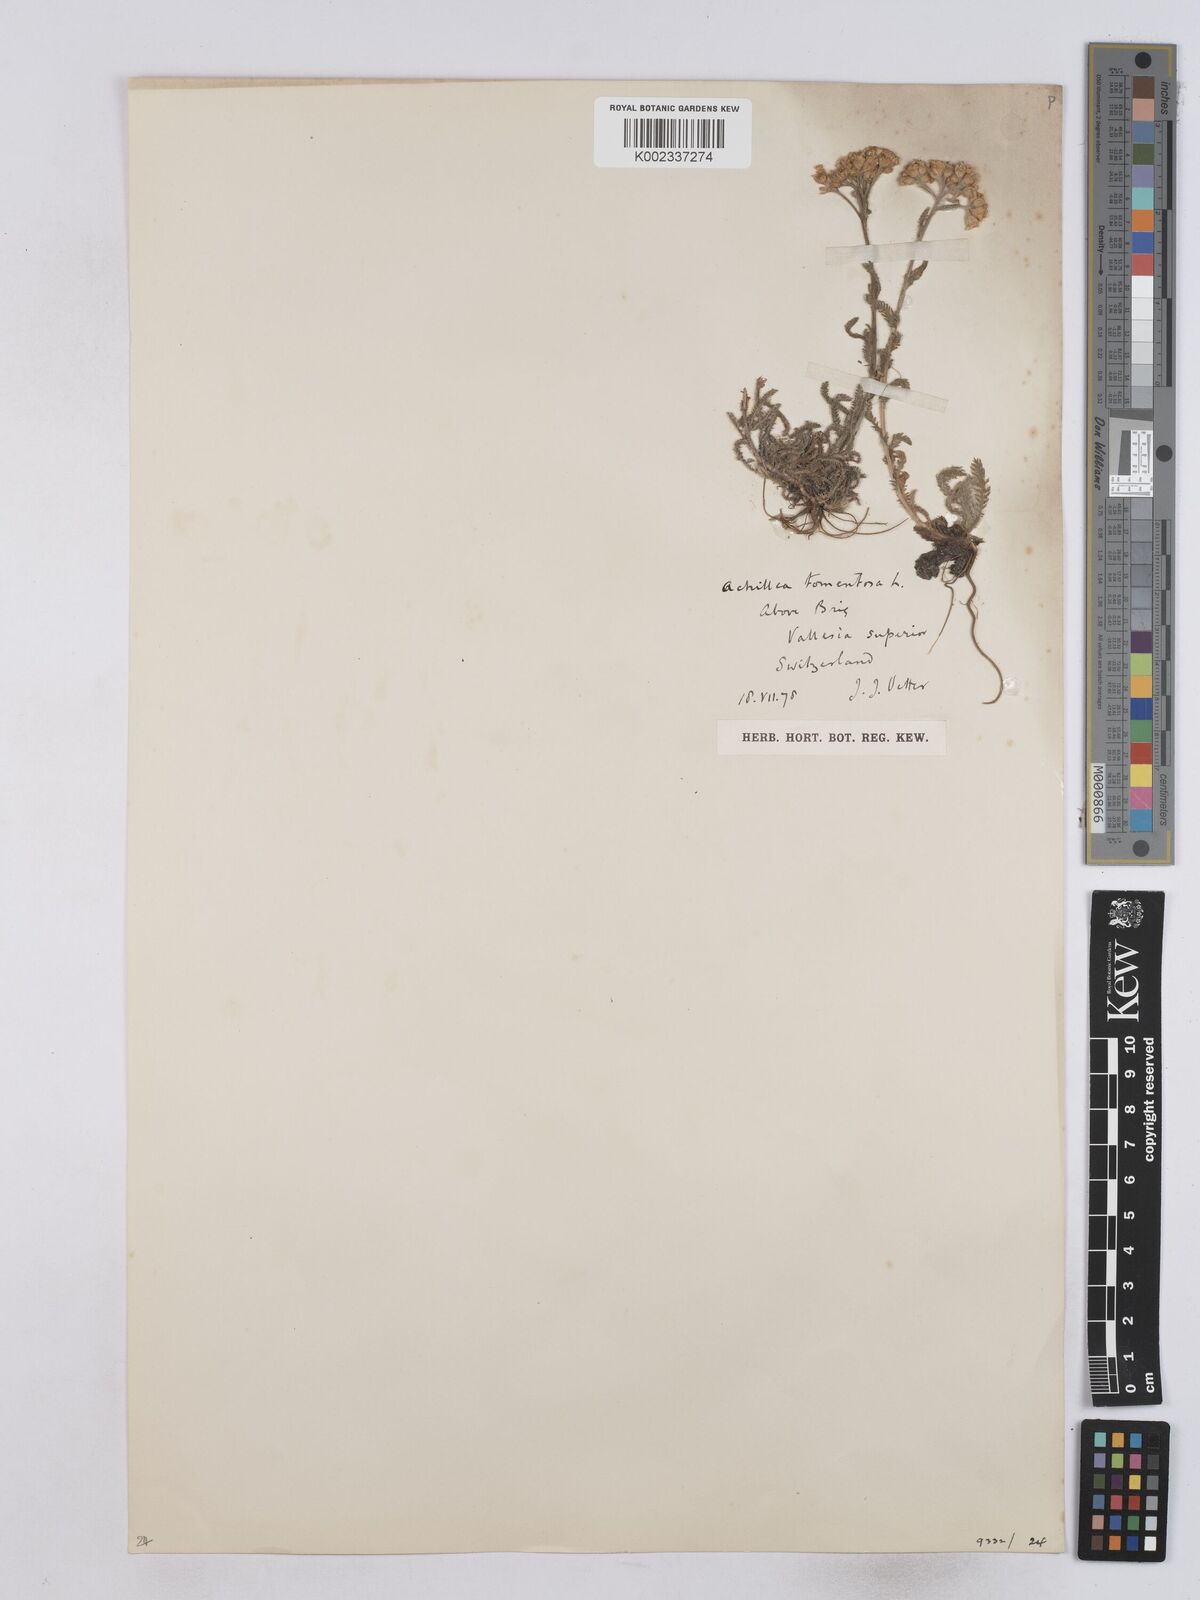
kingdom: Plantae
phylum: Tracheophyta
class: Magnoliopsida
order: Asterales
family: Asteraceae
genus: Achillea
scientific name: Achillea tomentosa
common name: Yellow milfoil
